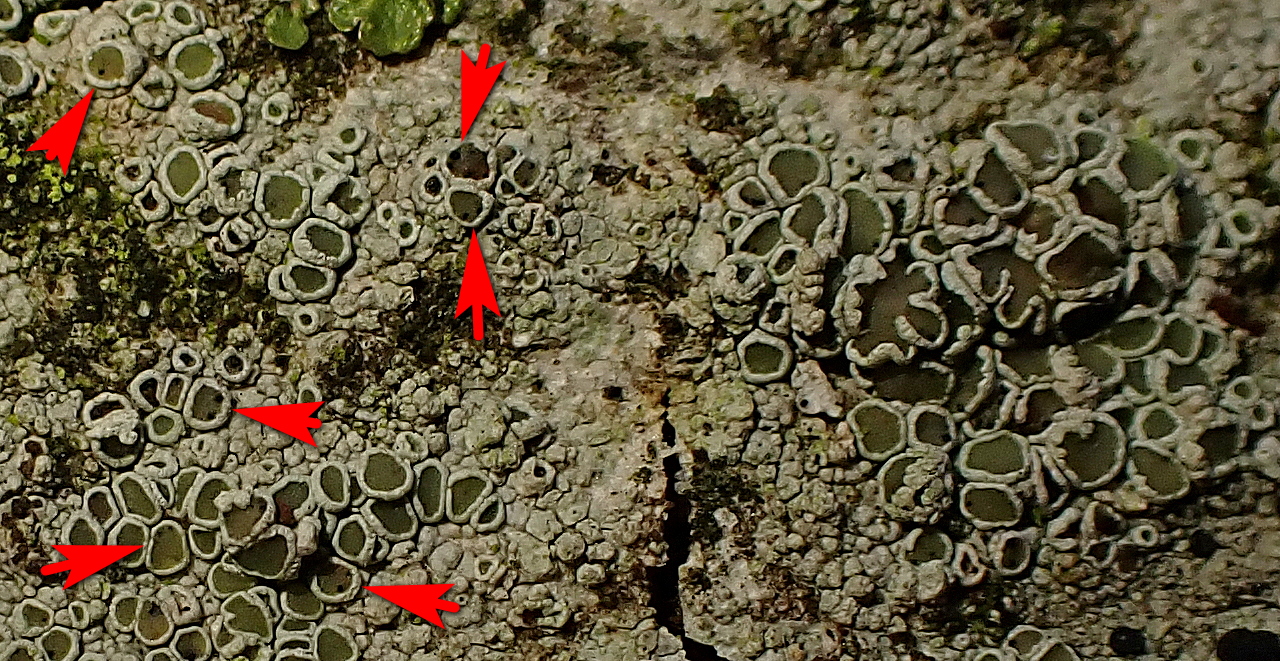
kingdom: Fungi
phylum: Ascomycota
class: Dothideomycetes
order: Pleosporales
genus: Vouauxiella
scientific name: Vouauxiella
